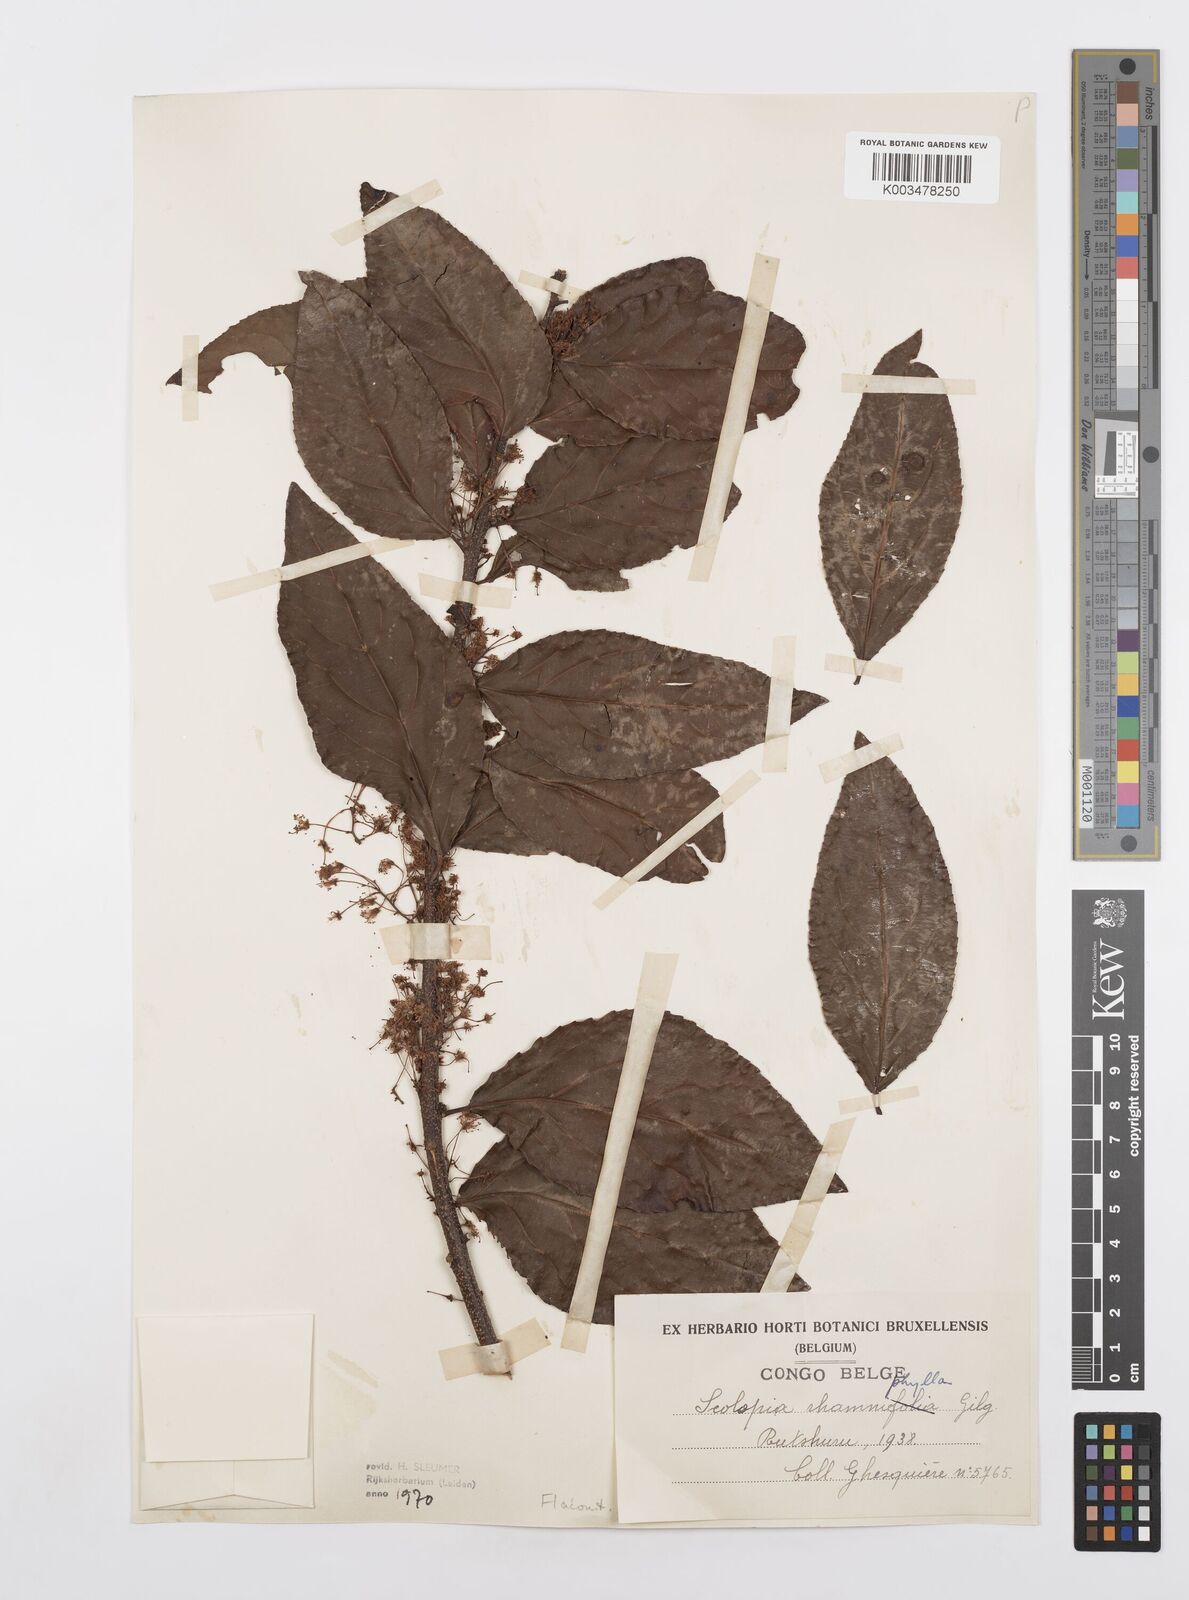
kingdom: Plantae
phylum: Tracheophyta
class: Magnoliopsida
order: Malpighiales
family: Salicaceae
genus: Scolopia
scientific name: Scolopia rhamniphylla
